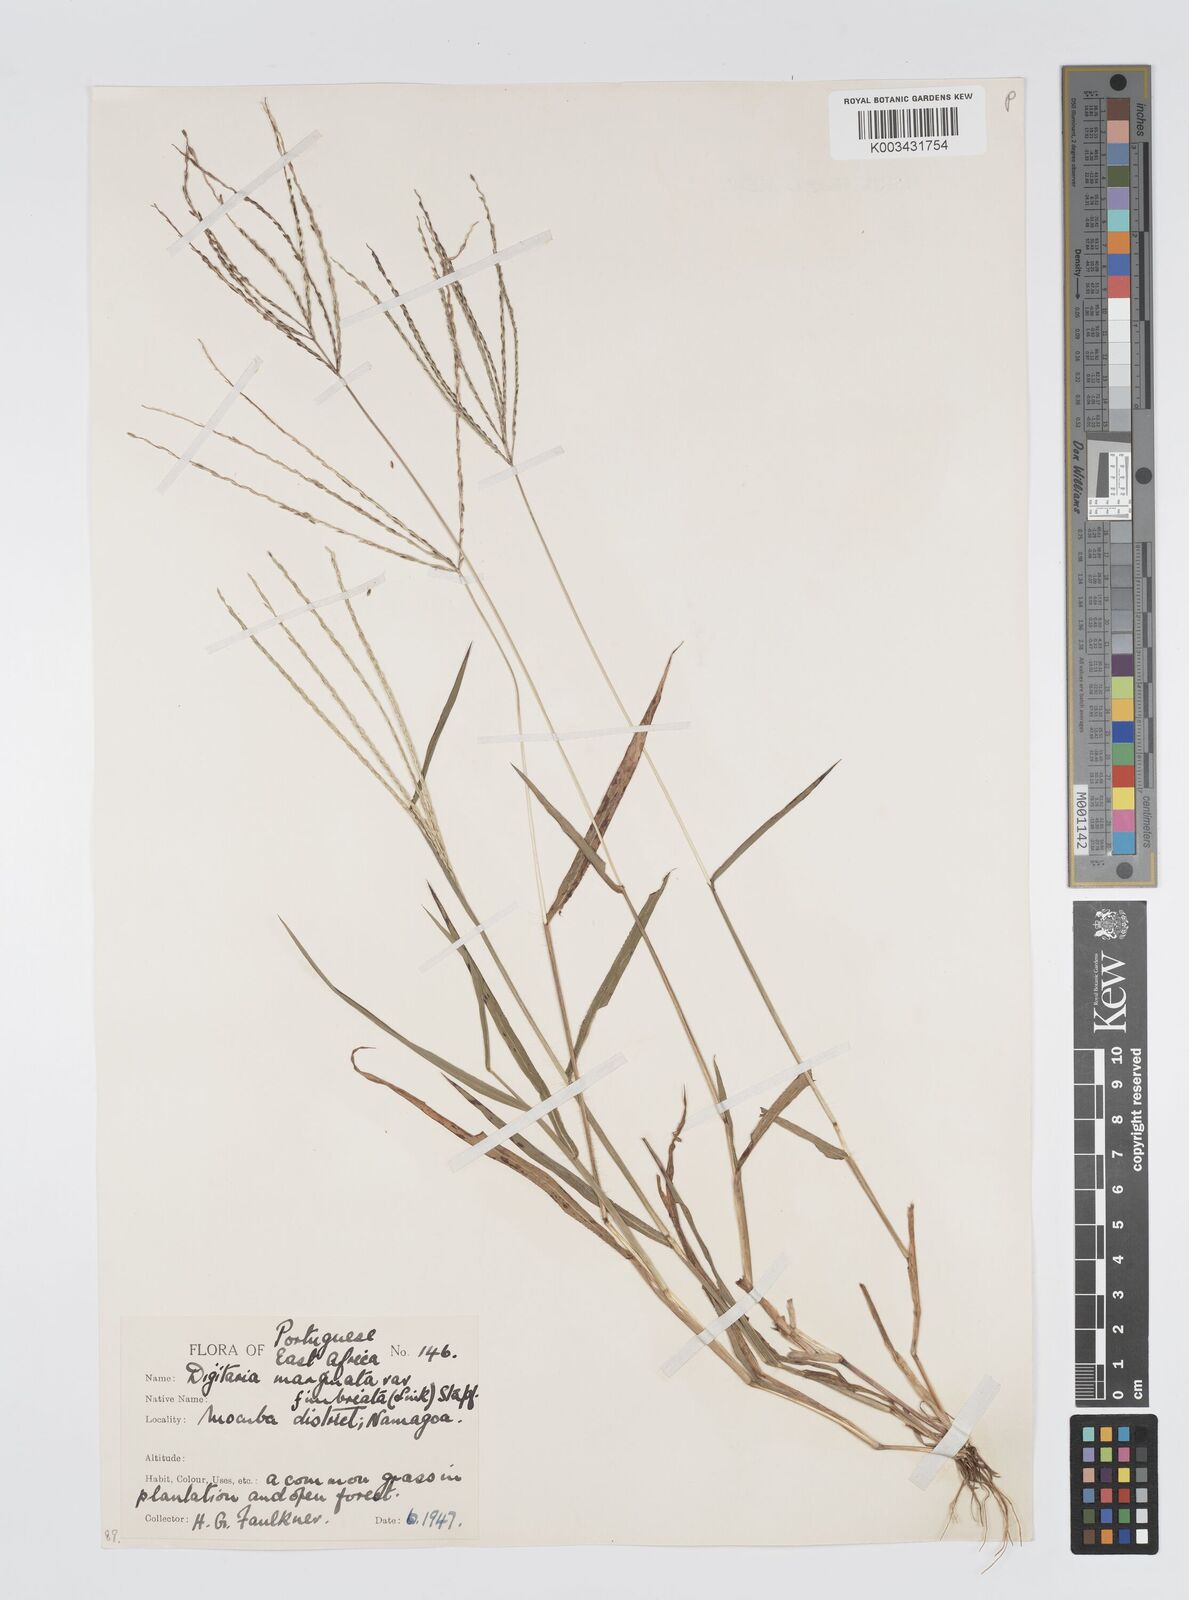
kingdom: Plantae
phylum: Tracheophyta
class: Liliopsida
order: Poales
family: Poaceae
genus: Digitaria
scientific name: Digitaria nuda
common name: Naked crabgrass
